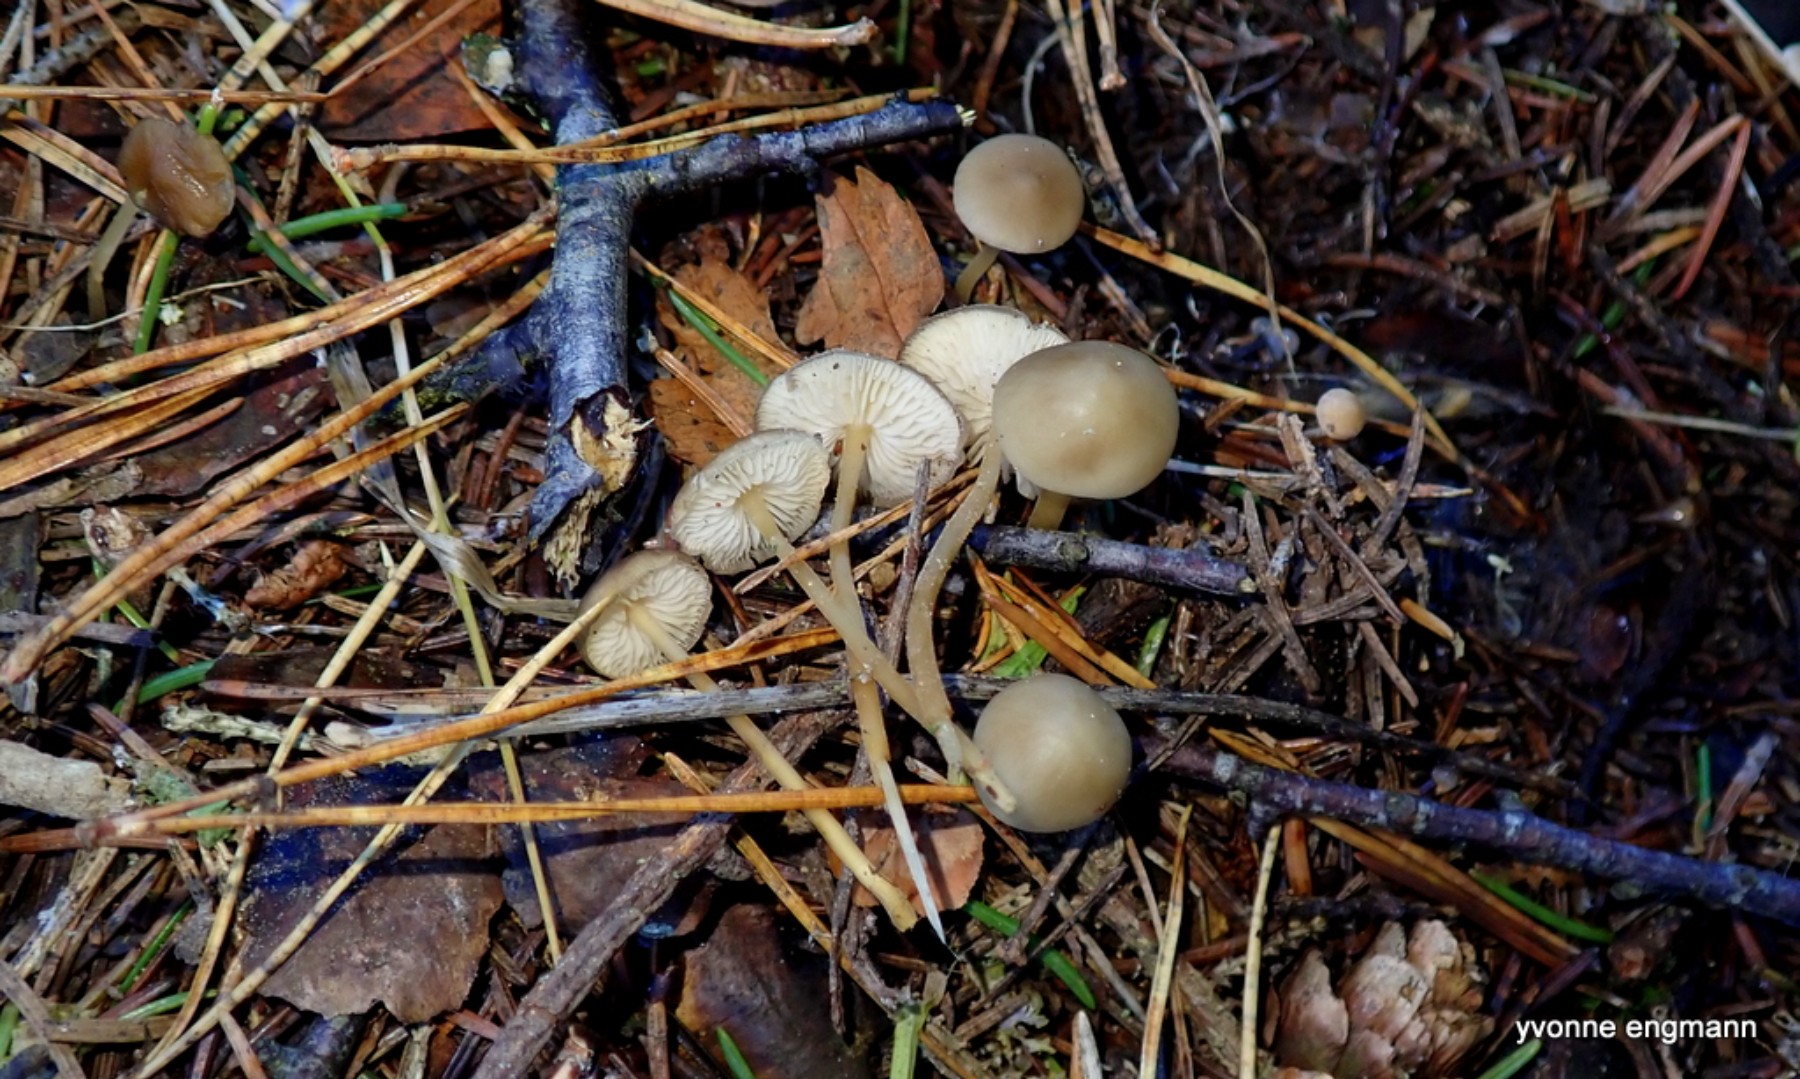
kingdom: Fungi
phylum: Basidiomycota
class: Agaricomycetes
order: Agaricales
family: Physalacriaceae
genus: Strobilurus
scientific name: Strobilurus esculentus
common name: gran-koglehat
